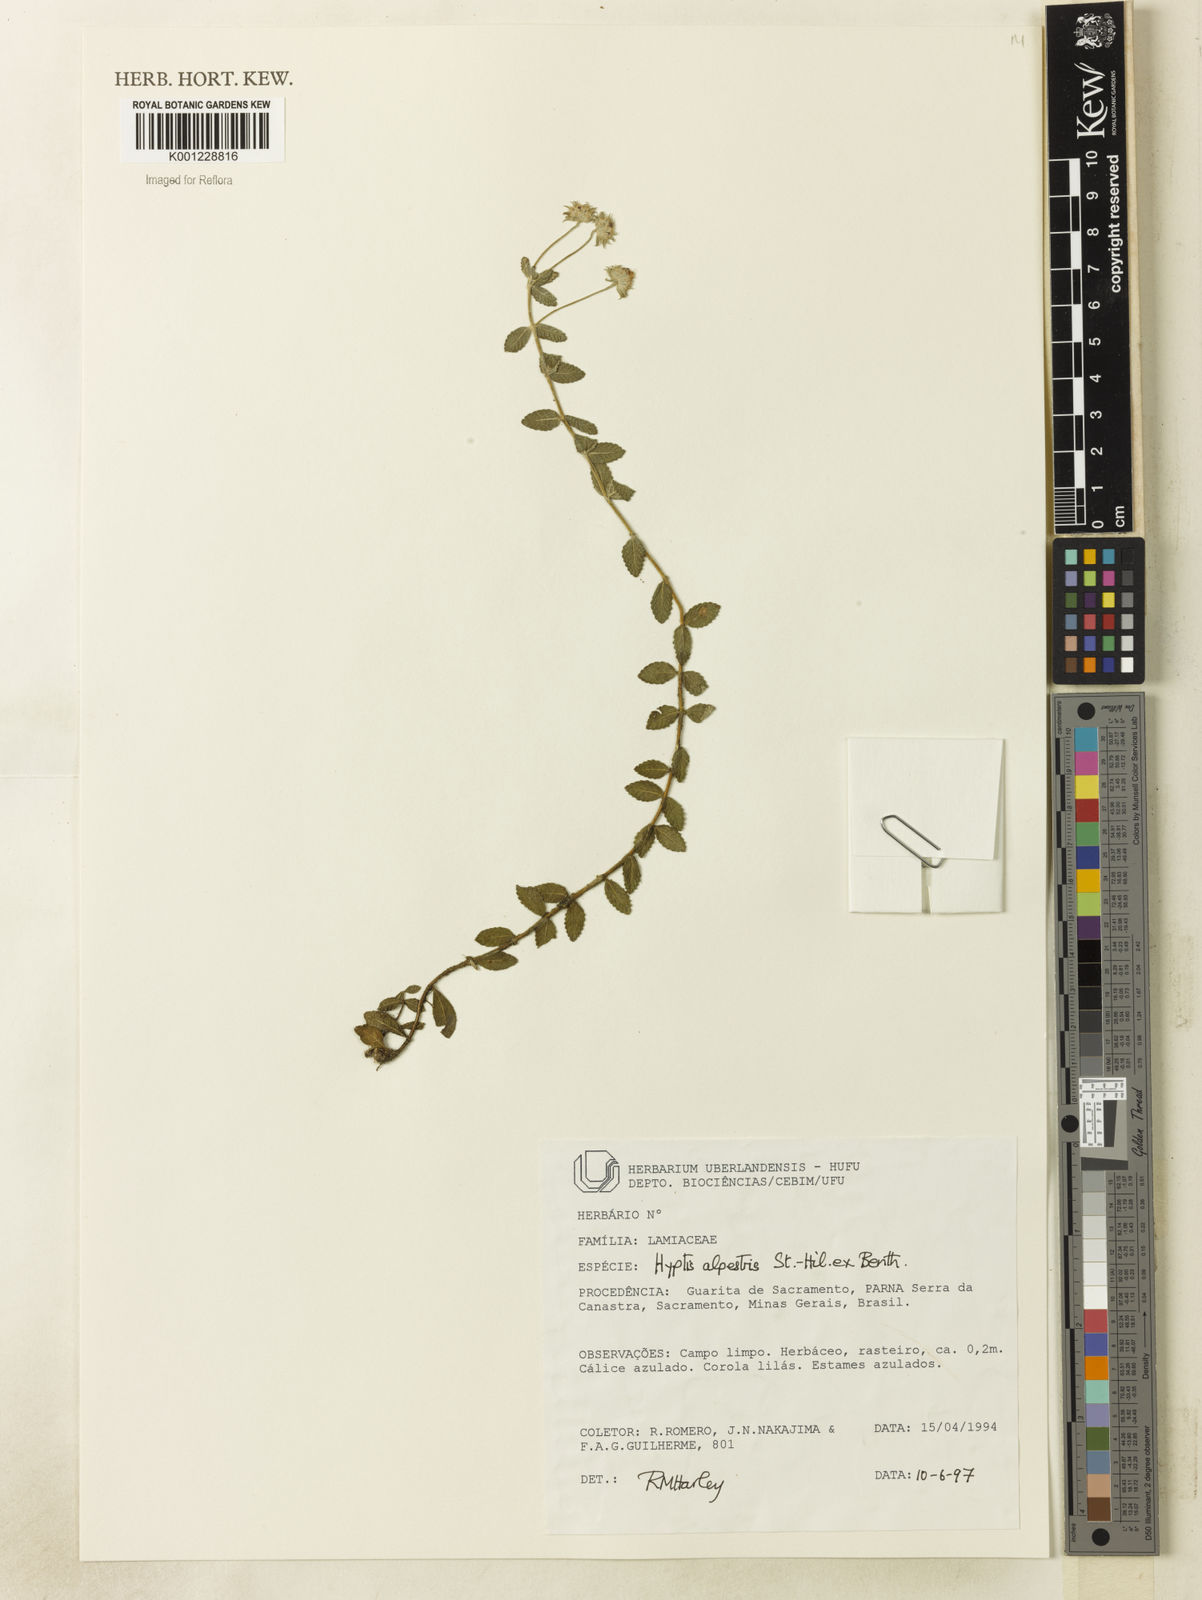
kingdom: Plantae
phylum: Tracheophyta
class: Magnoliopsida
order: Lamiales
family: Lamiaceae
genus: Hyptis
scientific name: Hyptis alpestris
